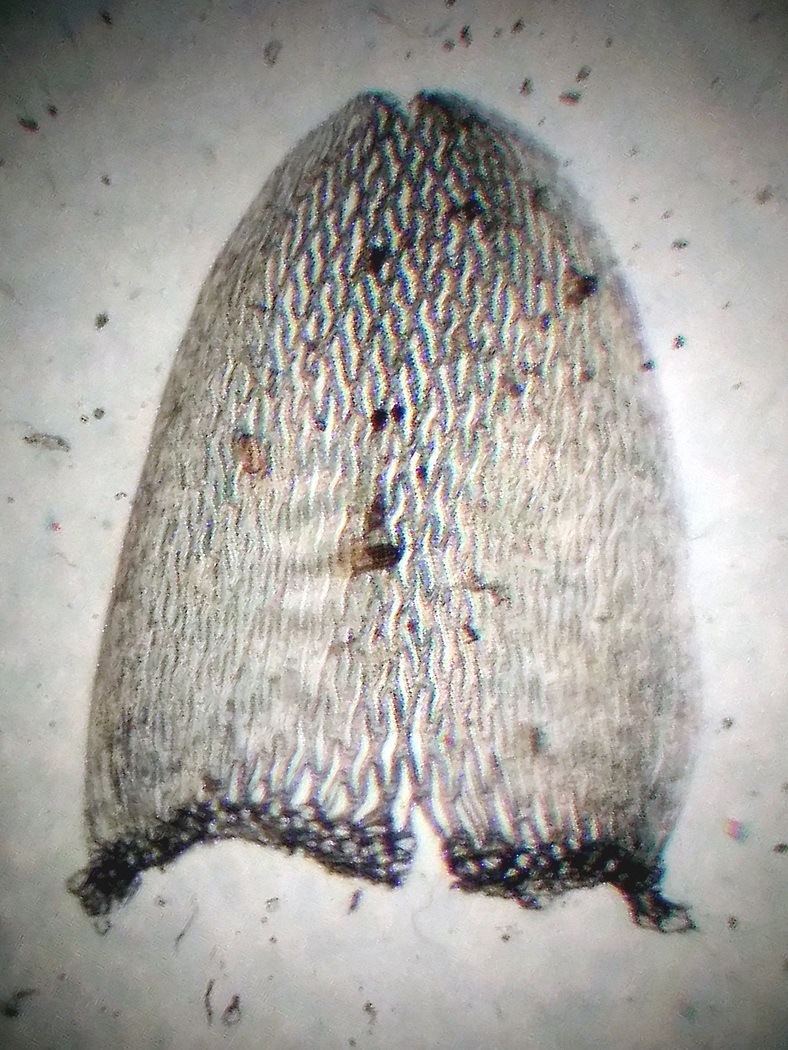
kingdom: Plantae
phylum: Bryophyta
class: Sphagnopsida
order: Sphagnales
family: Sphagnaceae
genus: Sphagnum
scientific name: Sphagnum balticum
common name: Tætbladet tørvemos
